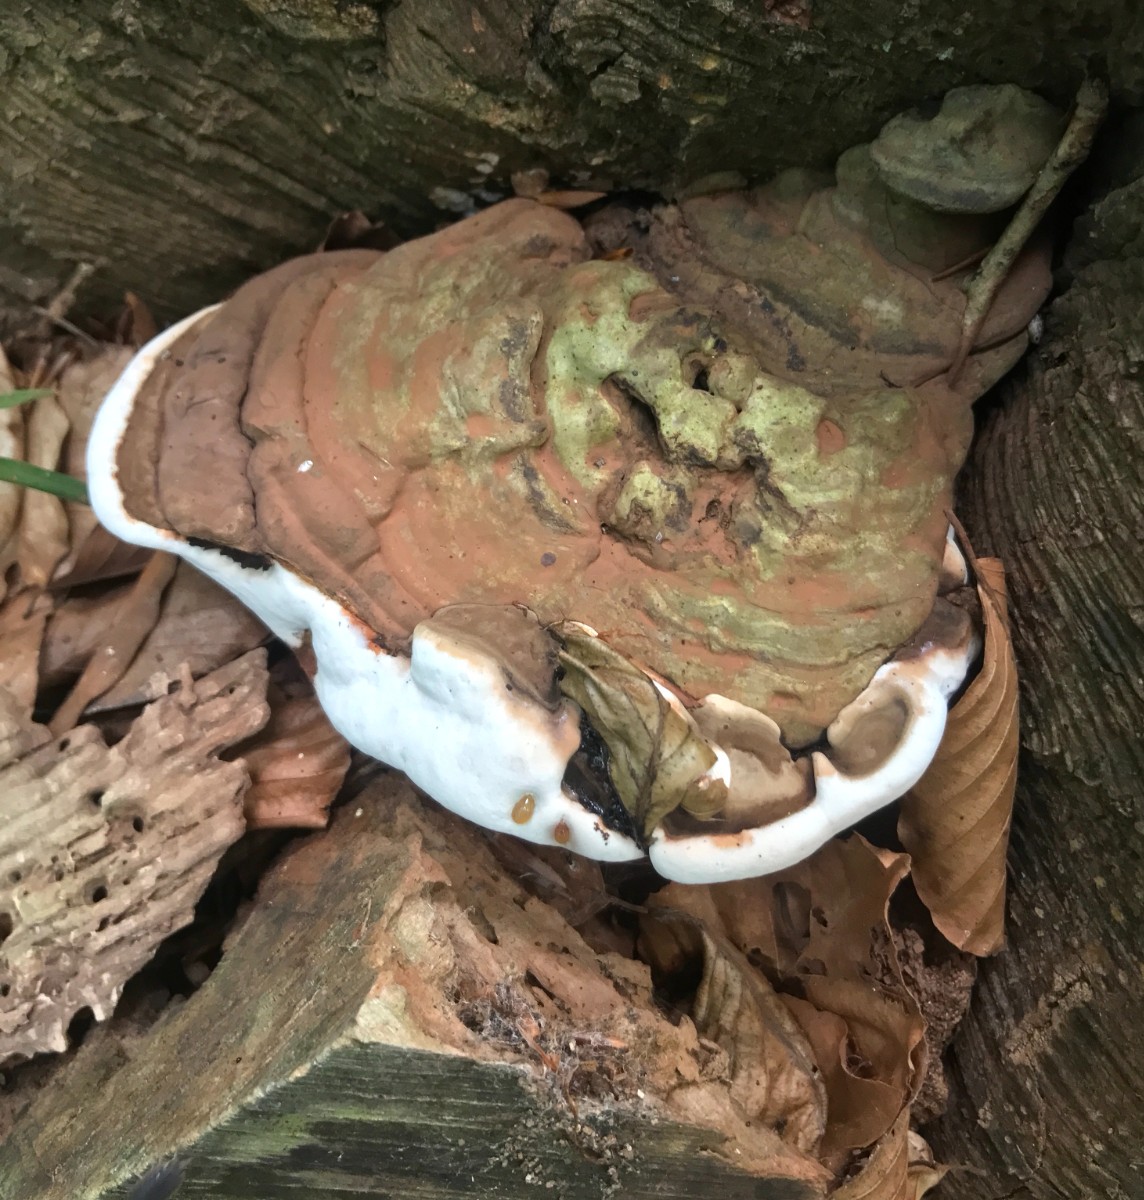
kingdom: Fungi
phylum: Basidiomycota
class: Agaricomycetes
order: Polyporales
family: Polyporaceae
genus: Ganoderma
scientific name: Ganoderma applanatum
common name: flad lakporesvamp
